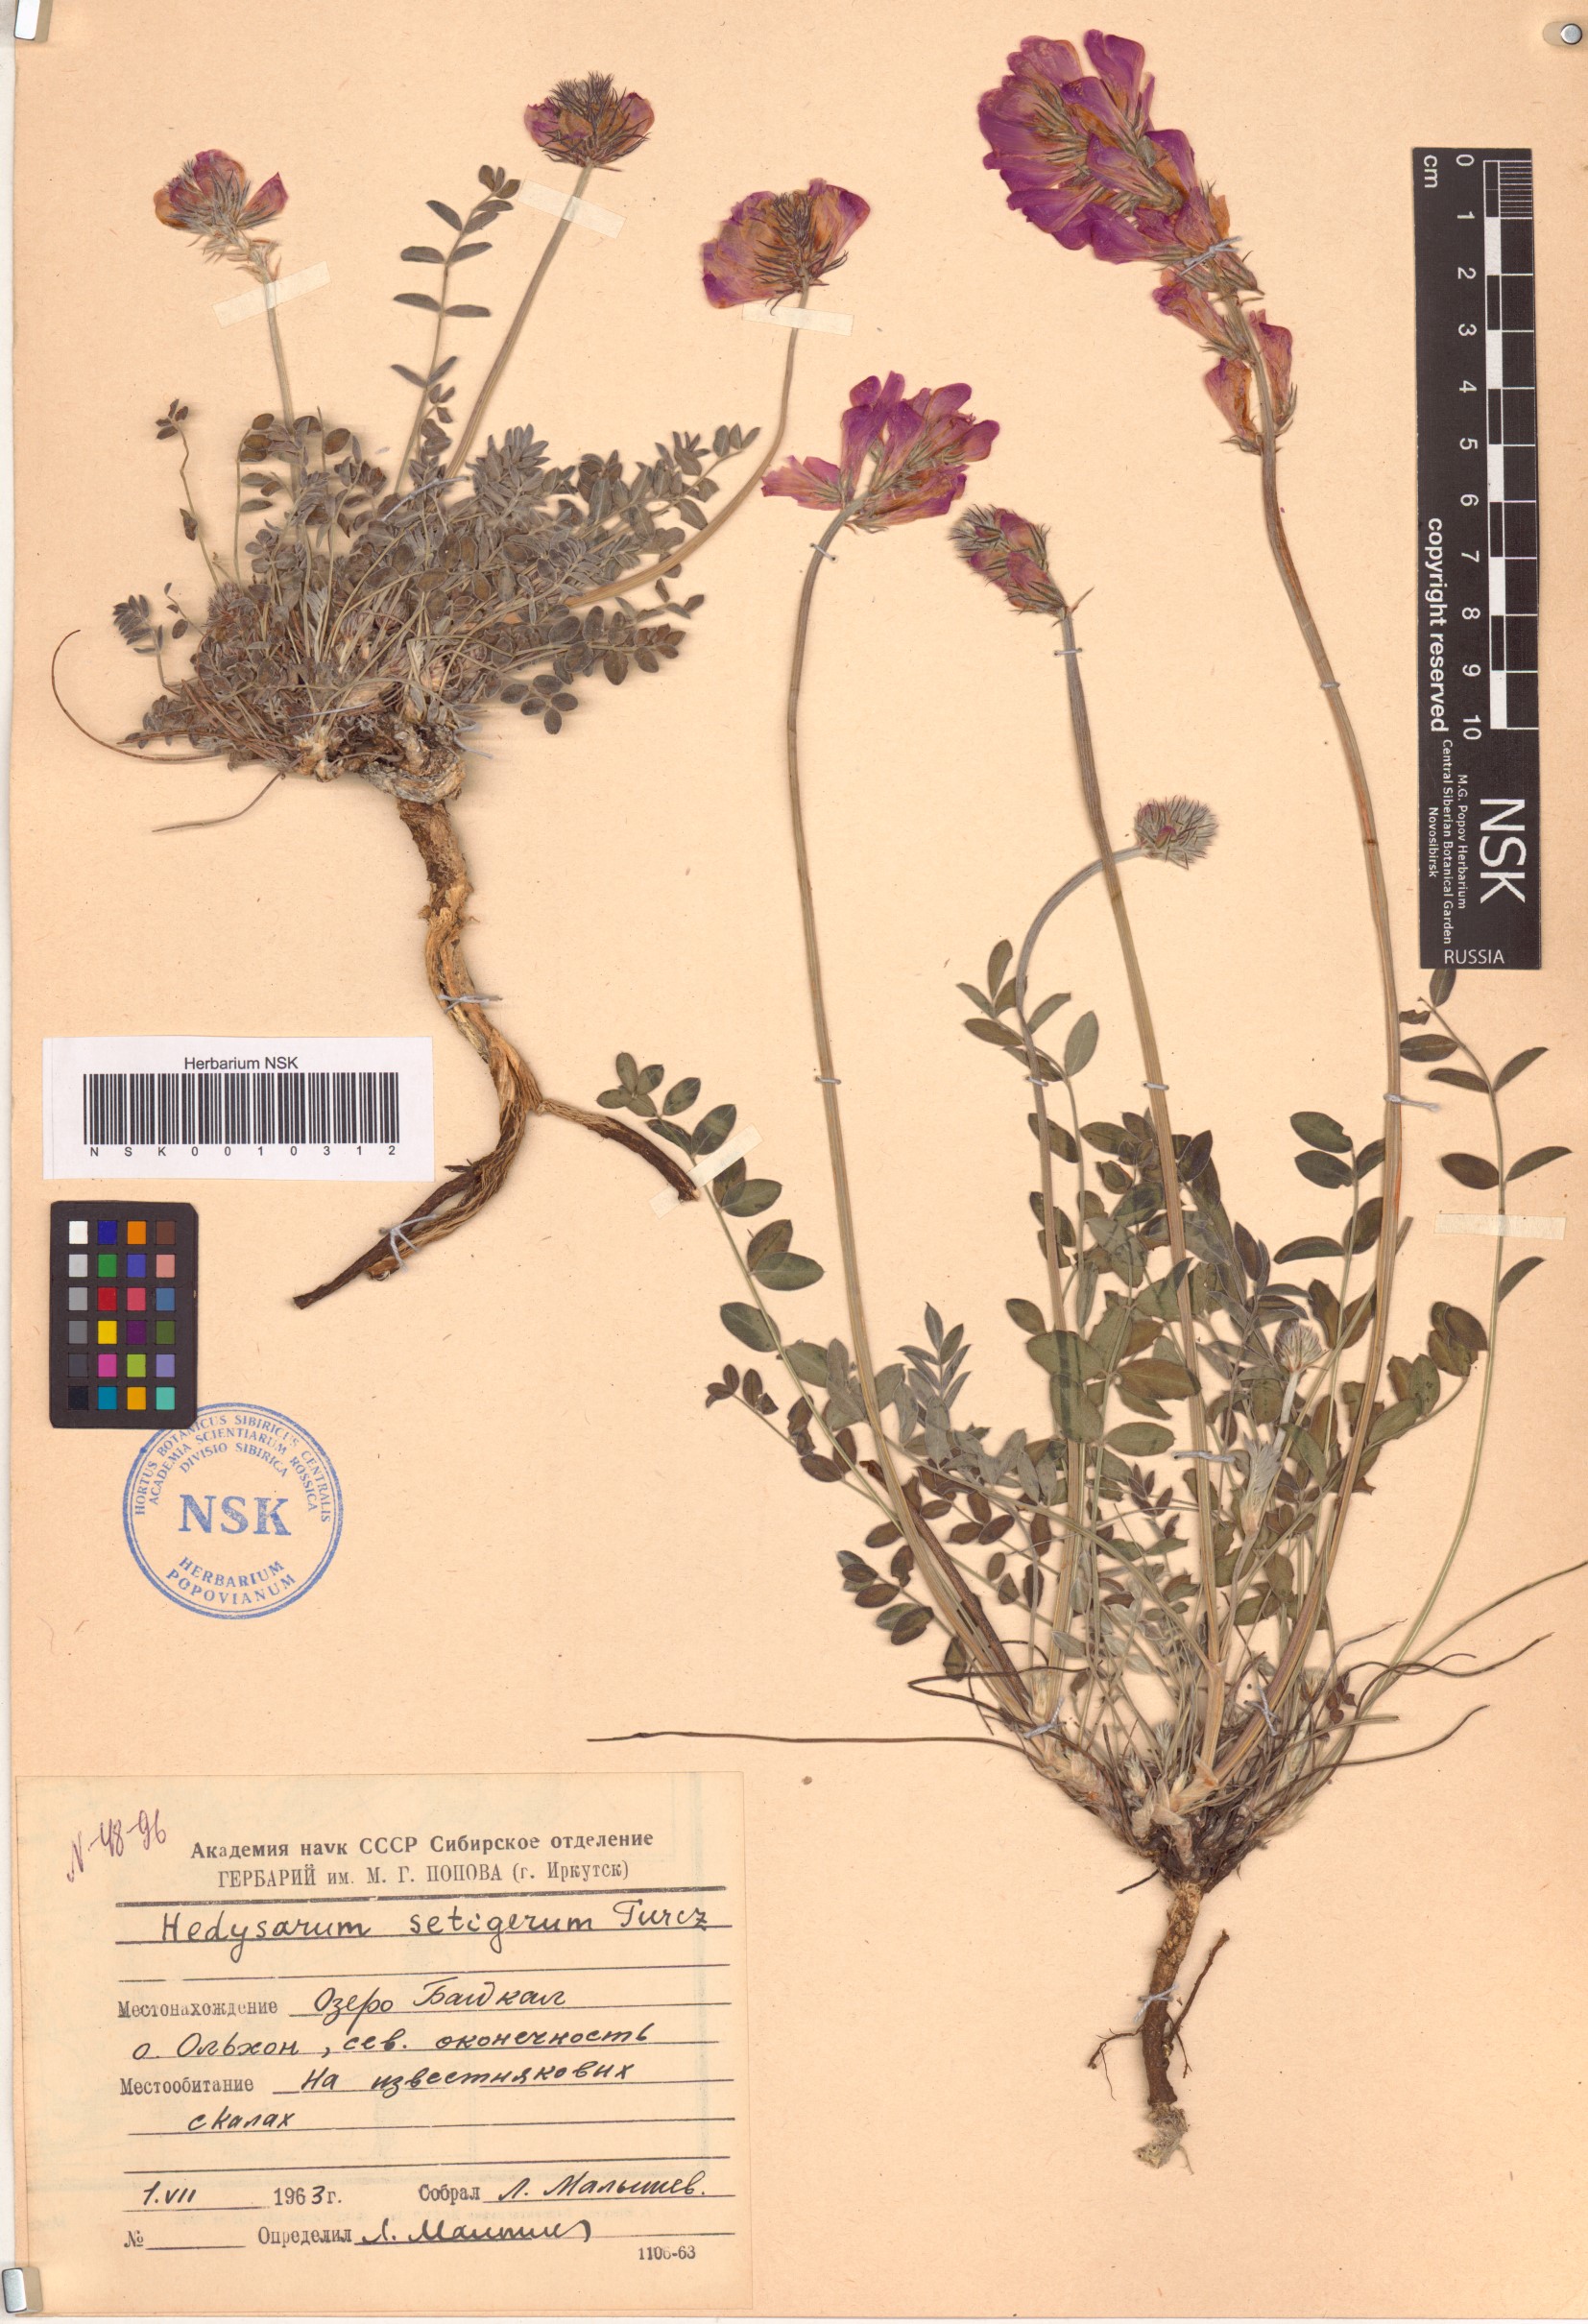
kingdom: Plantae
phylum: Tracheophyta
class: Magnoliopsida
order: Fabales
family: Fabaceae
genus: Hedysarum
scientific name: Hedysarum setigerum
